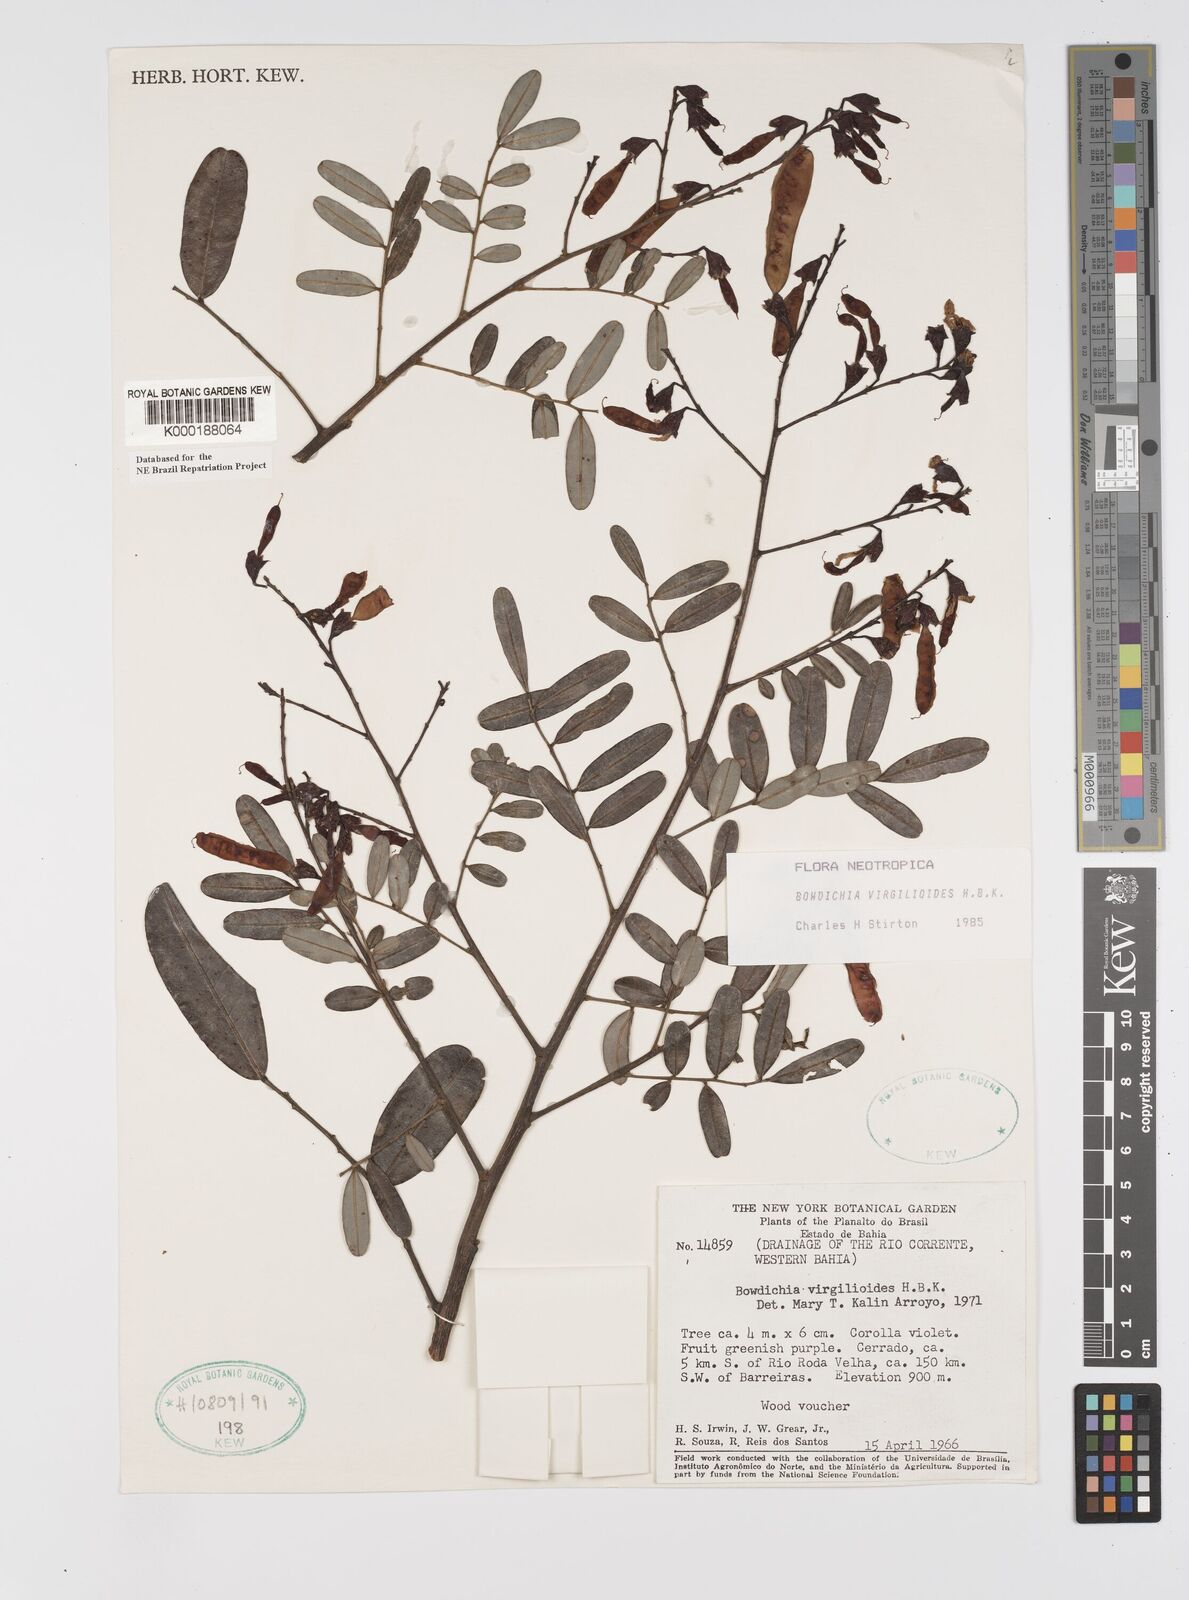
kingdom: Plantae
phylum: Tracheophyta
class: Magnoliopsida
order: Fabales
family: Fabaceae
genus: Bowdichia
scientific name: Bowdichia virgilioides
